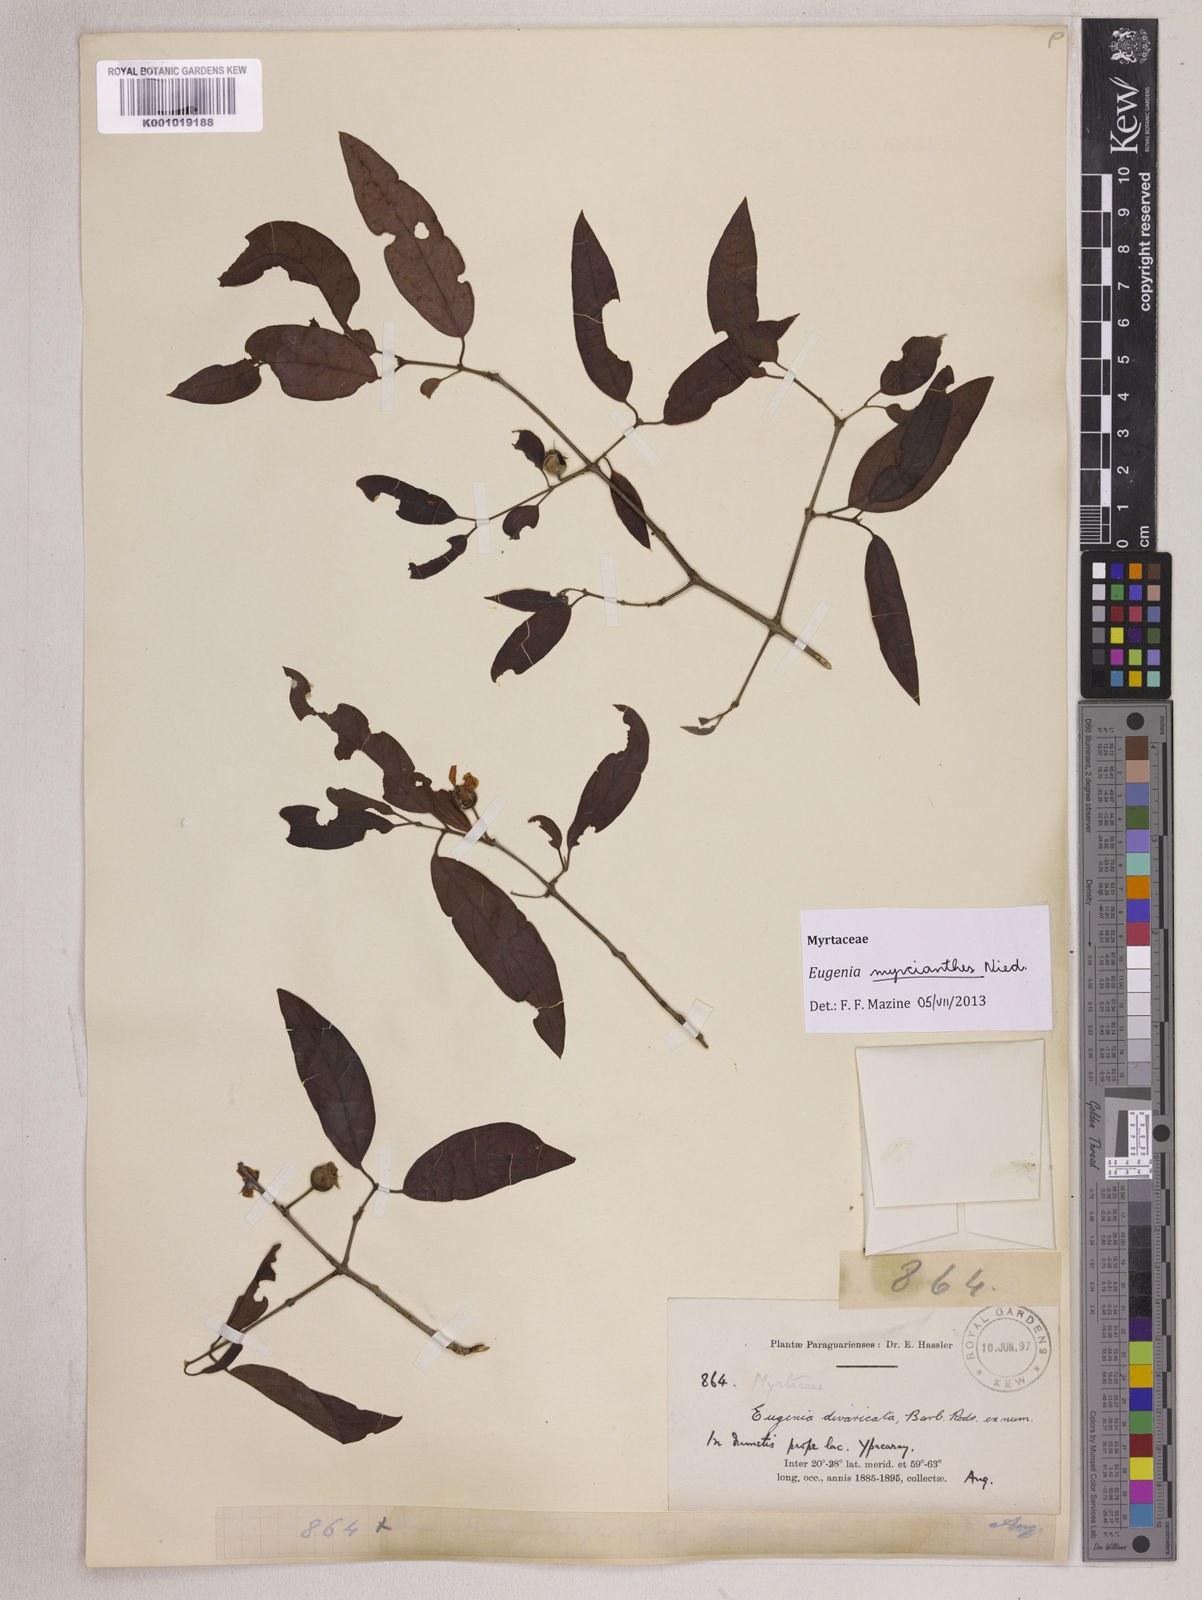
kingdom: Plantae
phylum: Tracheophyta
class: Magnoliopsida
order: Myrtales
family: Myrtaceae
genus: Eugenia
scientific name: Eugenia myrcianthes
